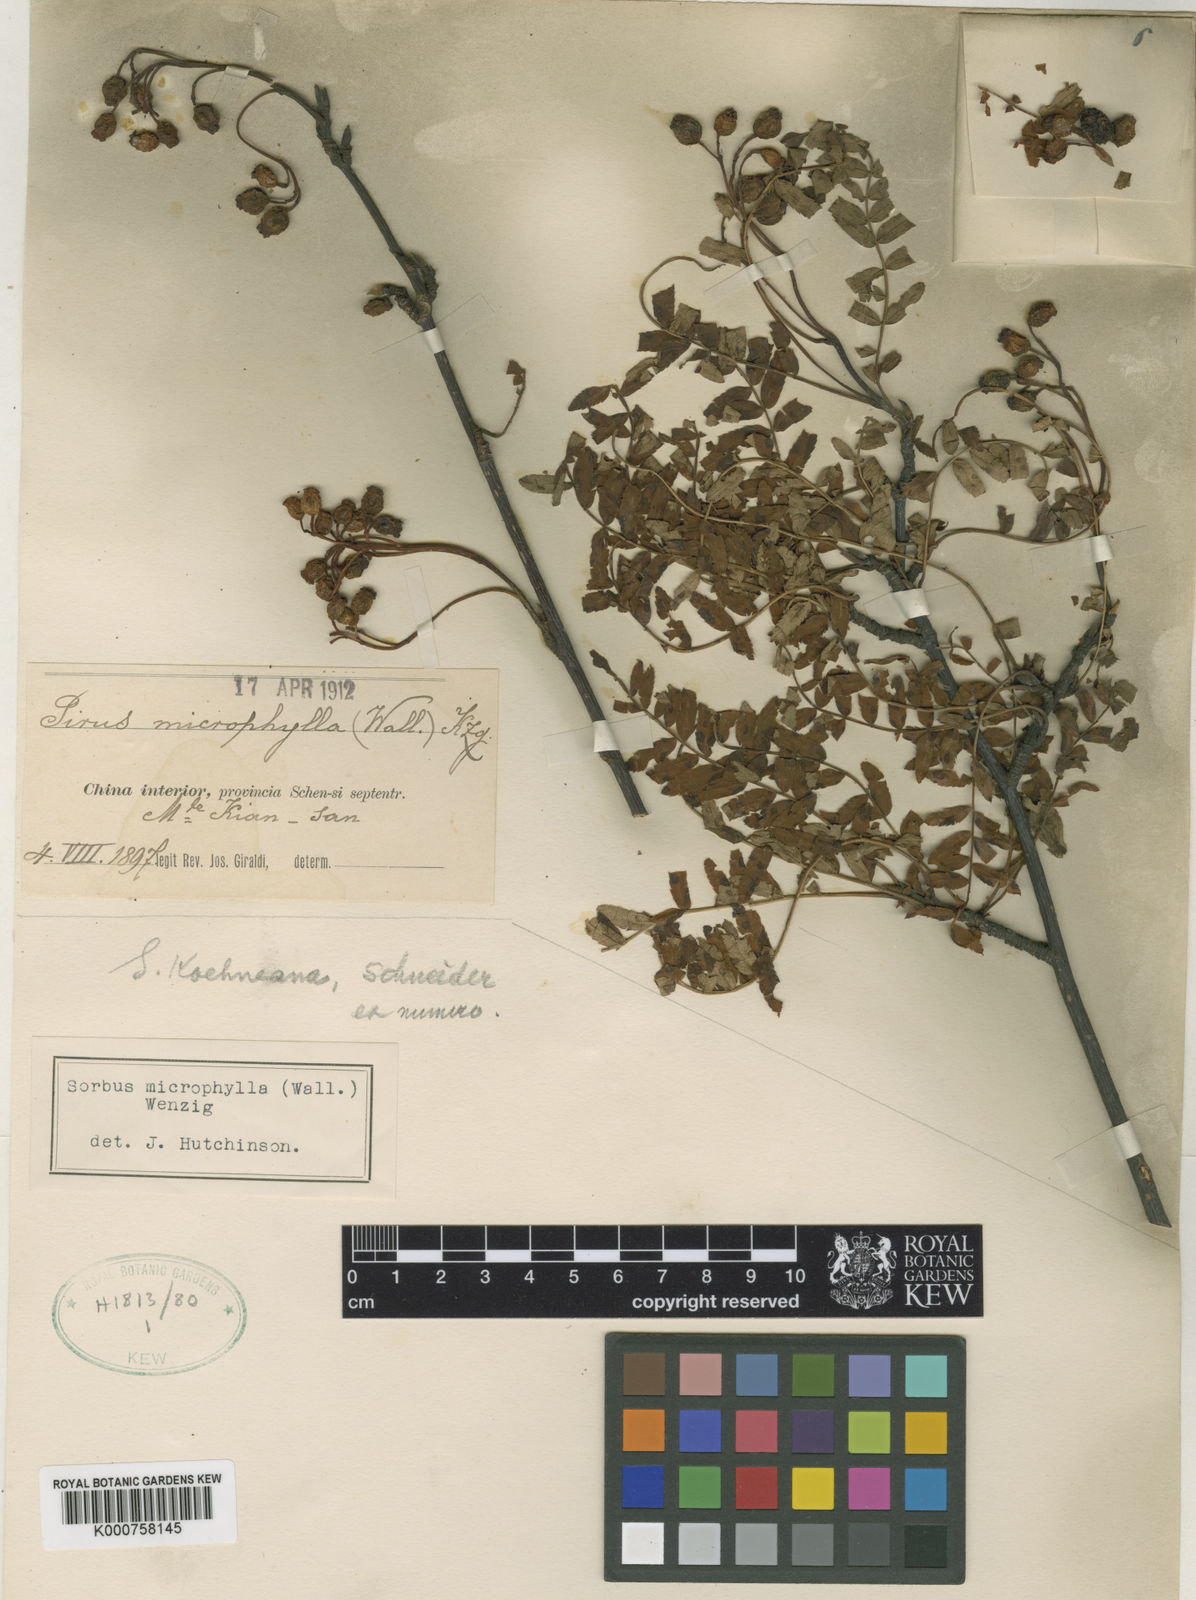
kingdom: Plantae
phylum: Tracheophyta
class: Magnoliopsida
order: Rosales
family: Rosaceae
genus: Sorbus
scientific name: Sorbus koehneana
